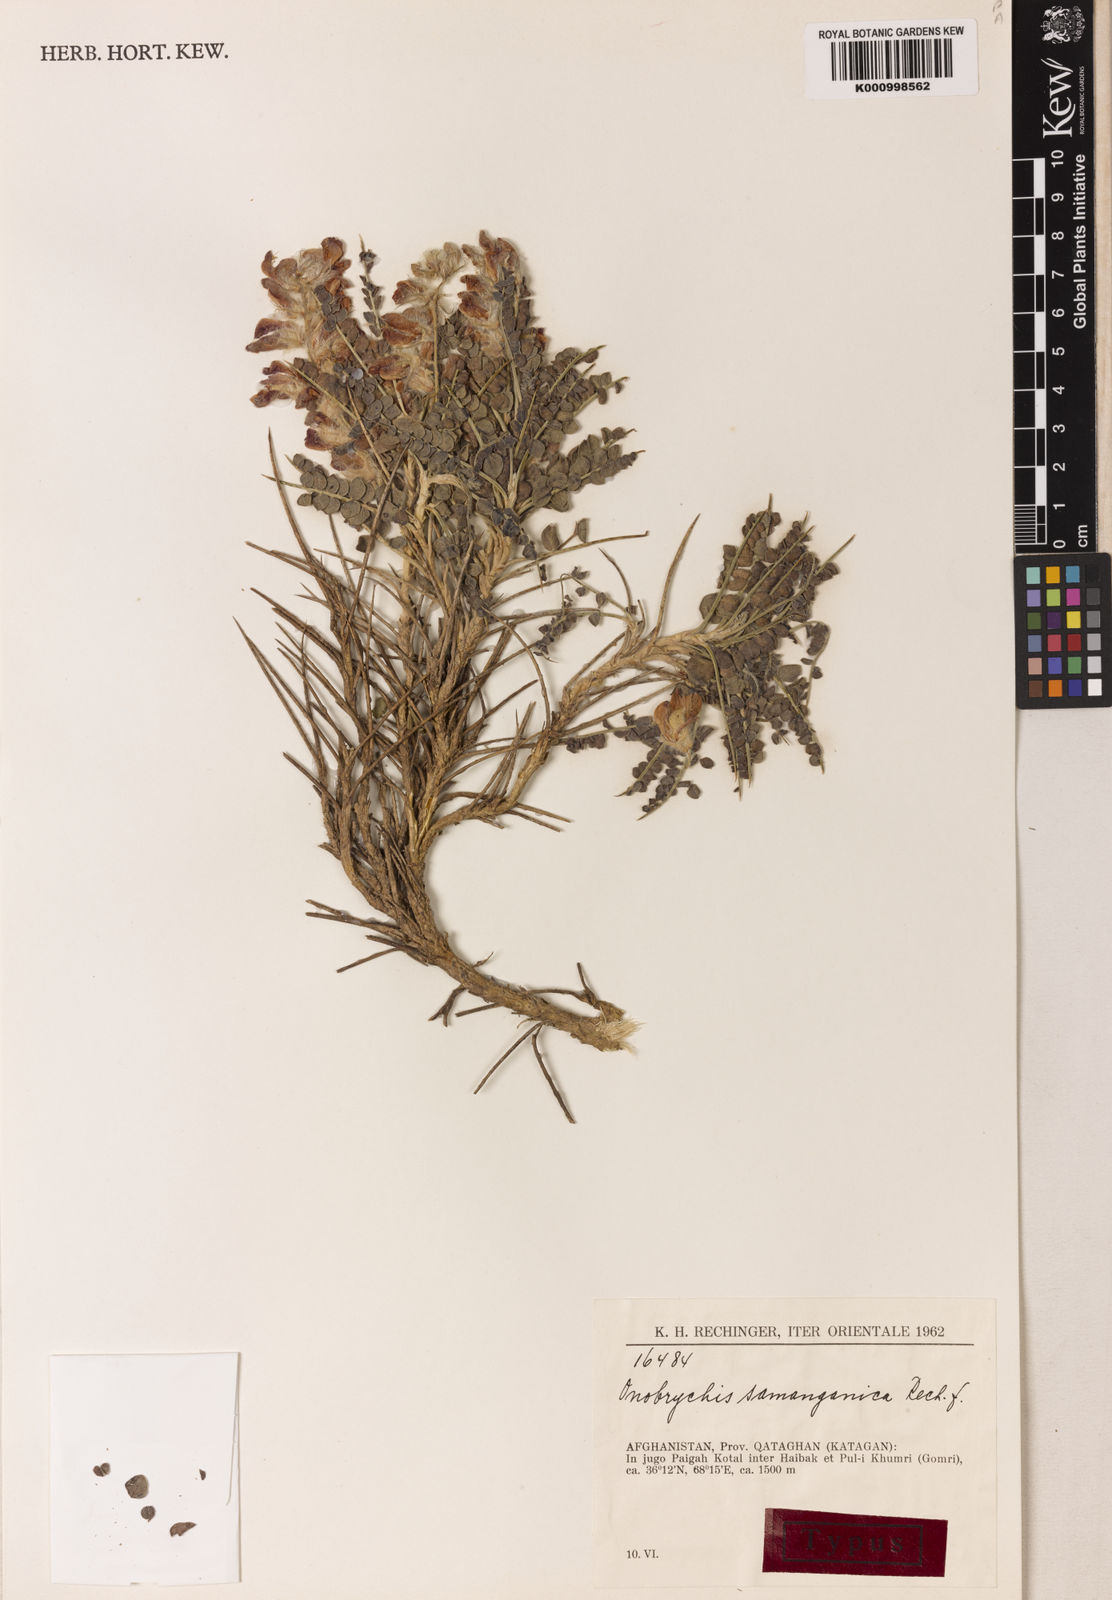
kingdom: Plantae
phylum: Tracheophyta
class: Magnoliopsida
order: Fabales
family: Fabaceae
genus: Onobrychis
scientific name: Onobrychis samanganica
